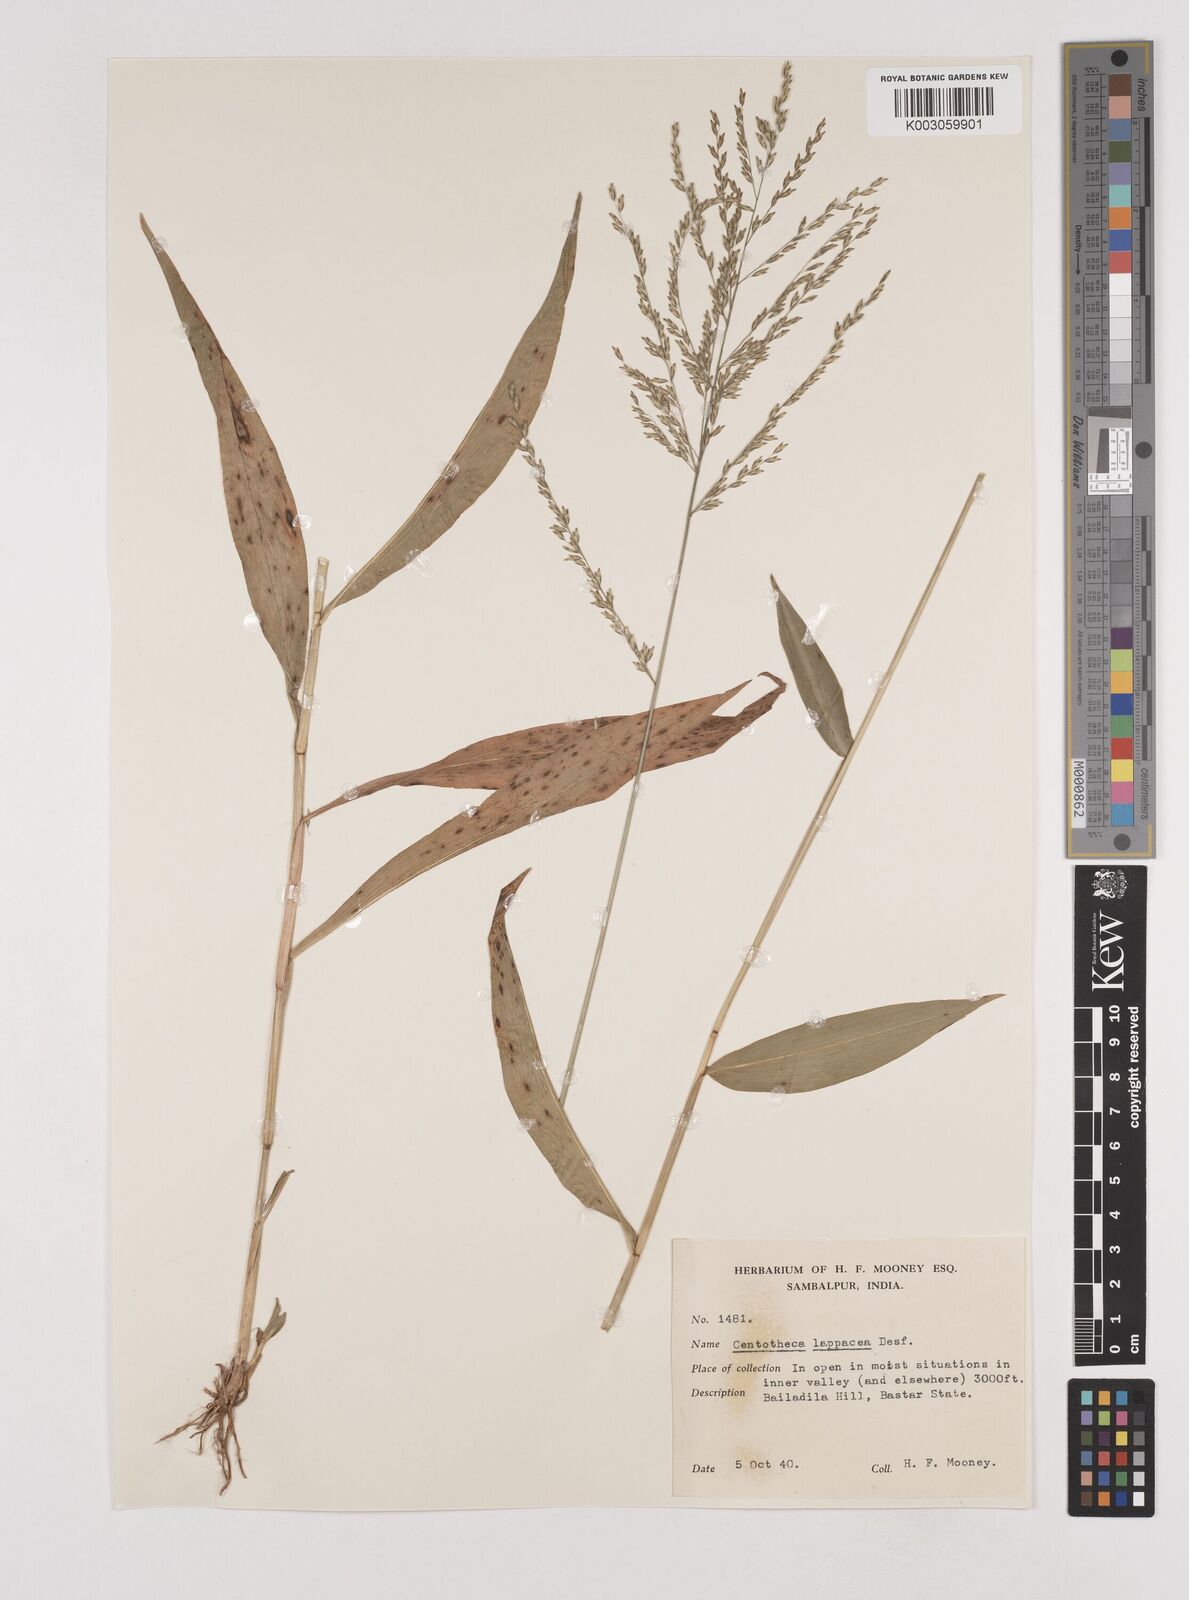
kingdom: Plantae
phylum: Tracheophyta
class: Liliopsida
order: Poales
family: Poaceae
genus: Centotheca
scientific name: Centotheca lappacea
